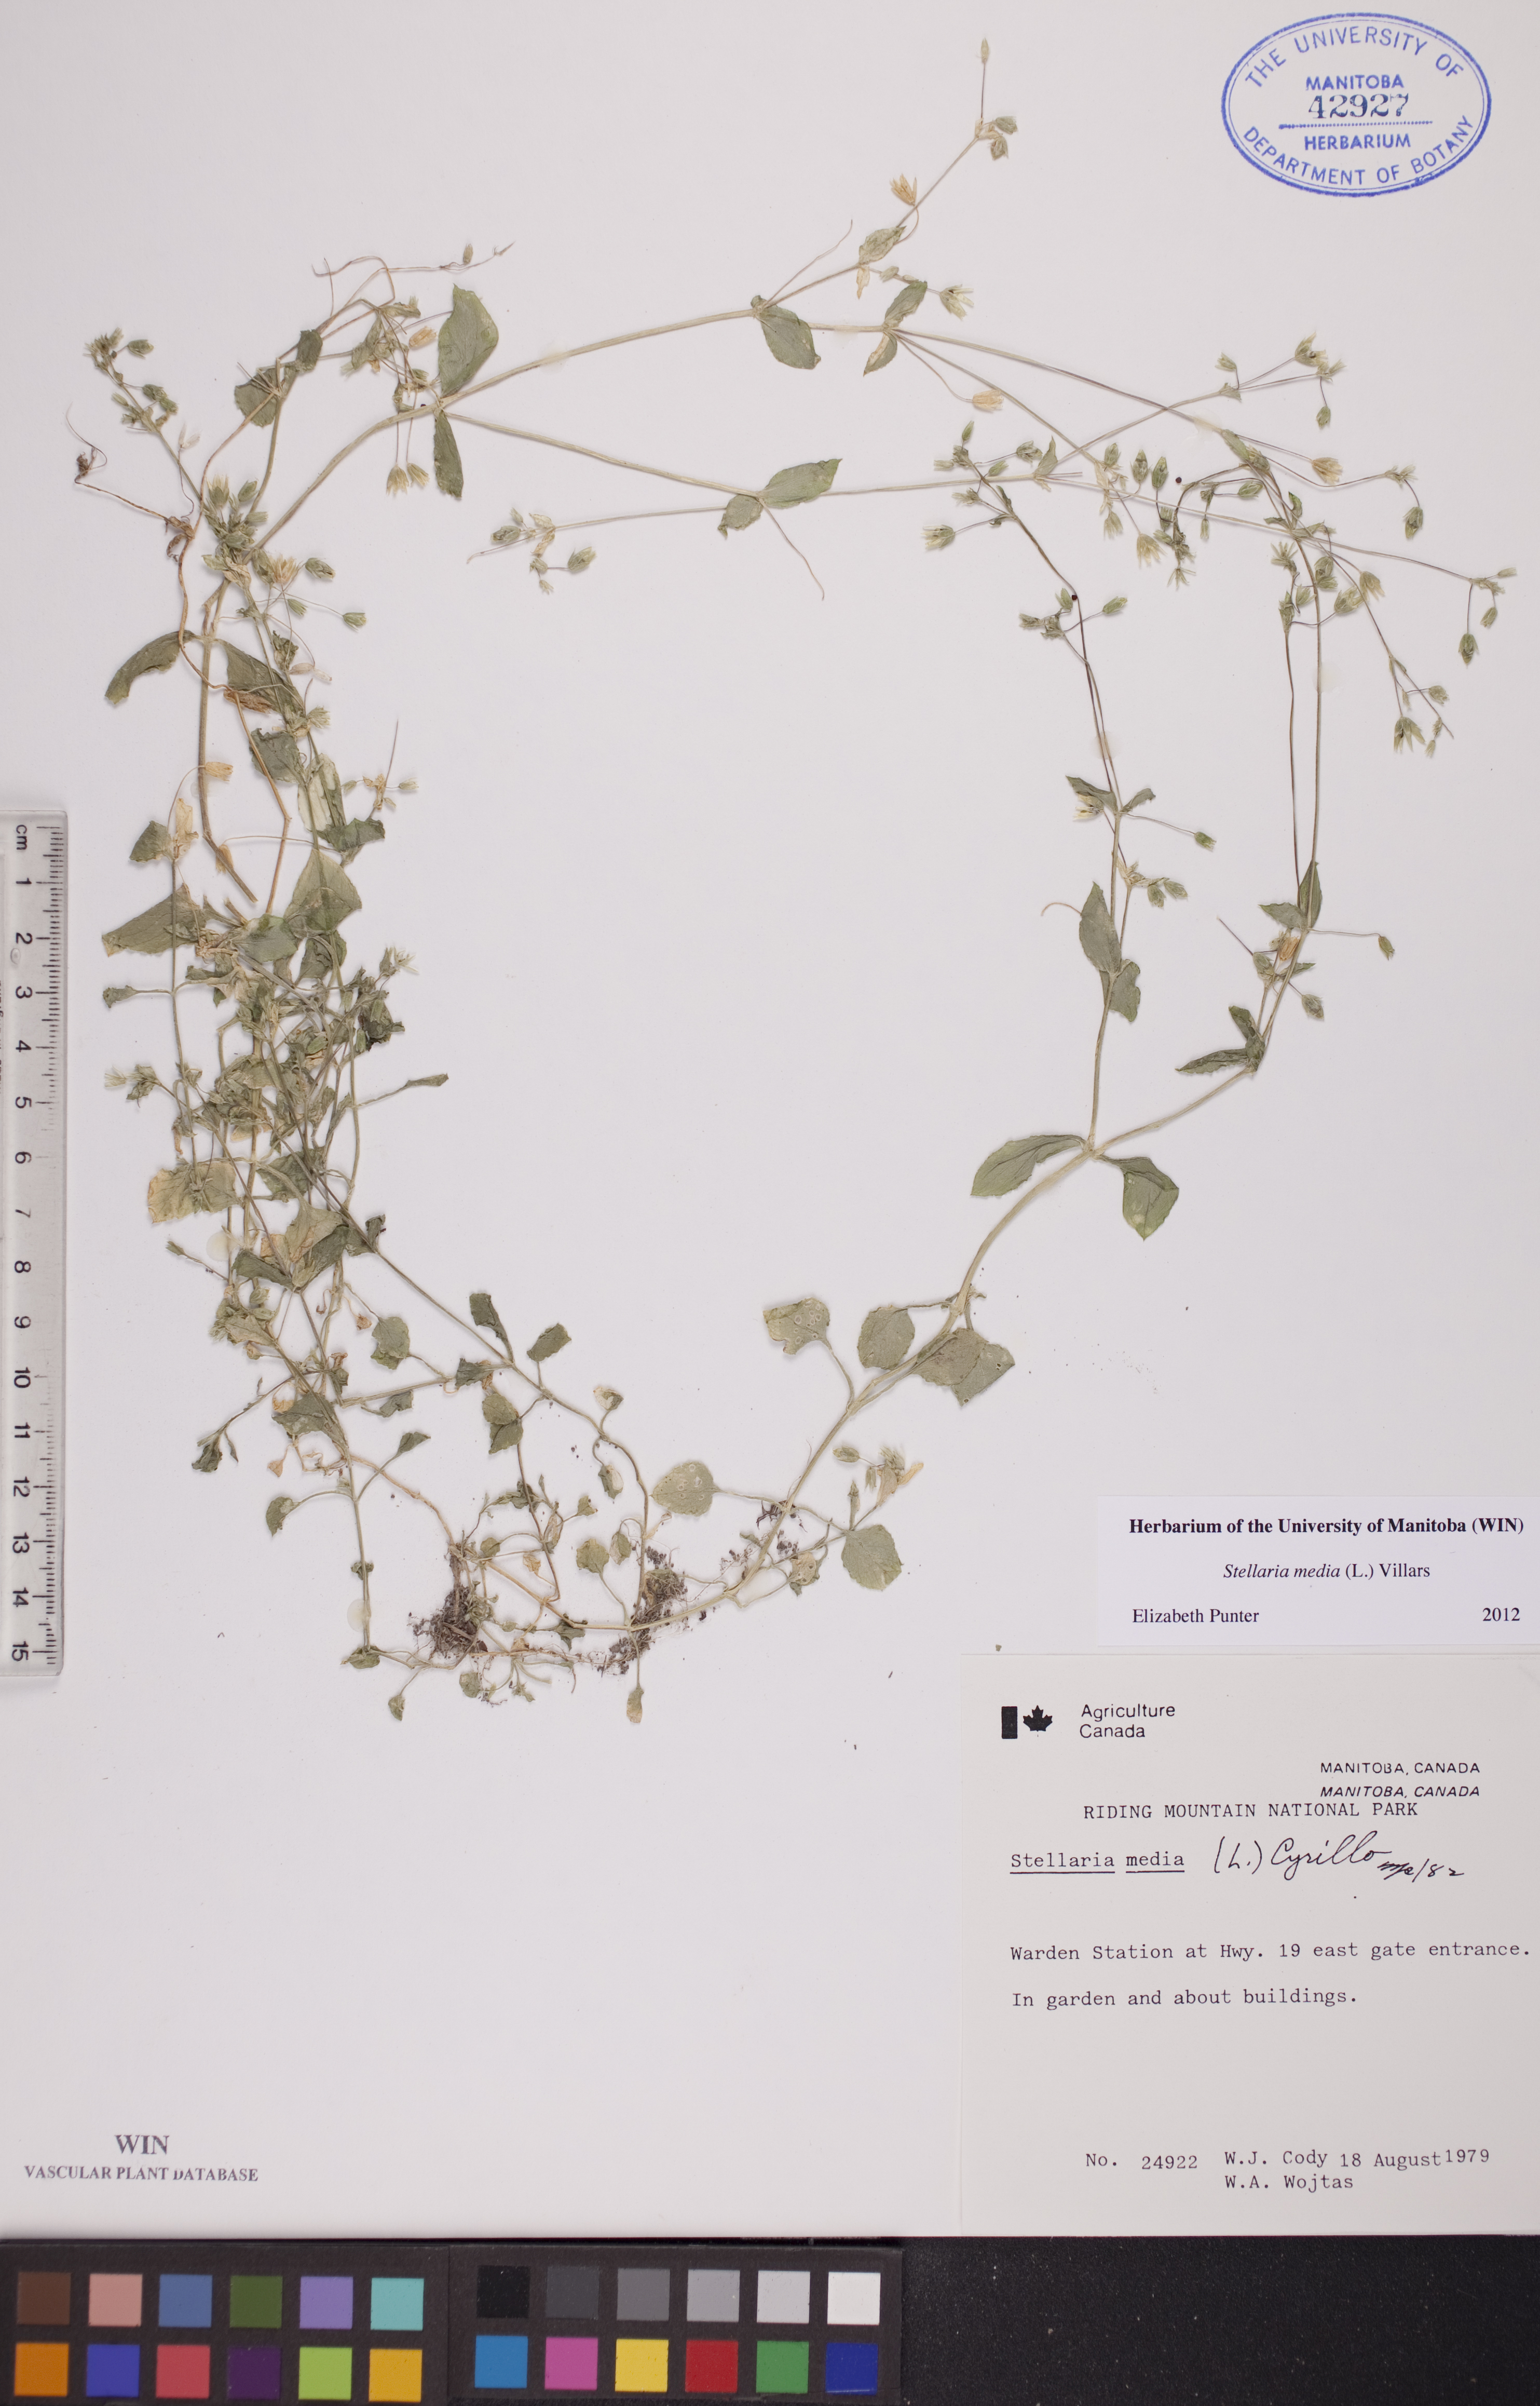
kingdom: Plantae
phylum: Tracheophyta
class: Magnoliopsida
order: Caryophyllales
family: Caryophyllaceae
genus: Stellaria
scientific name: Stellaria media
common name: Common chickweed
